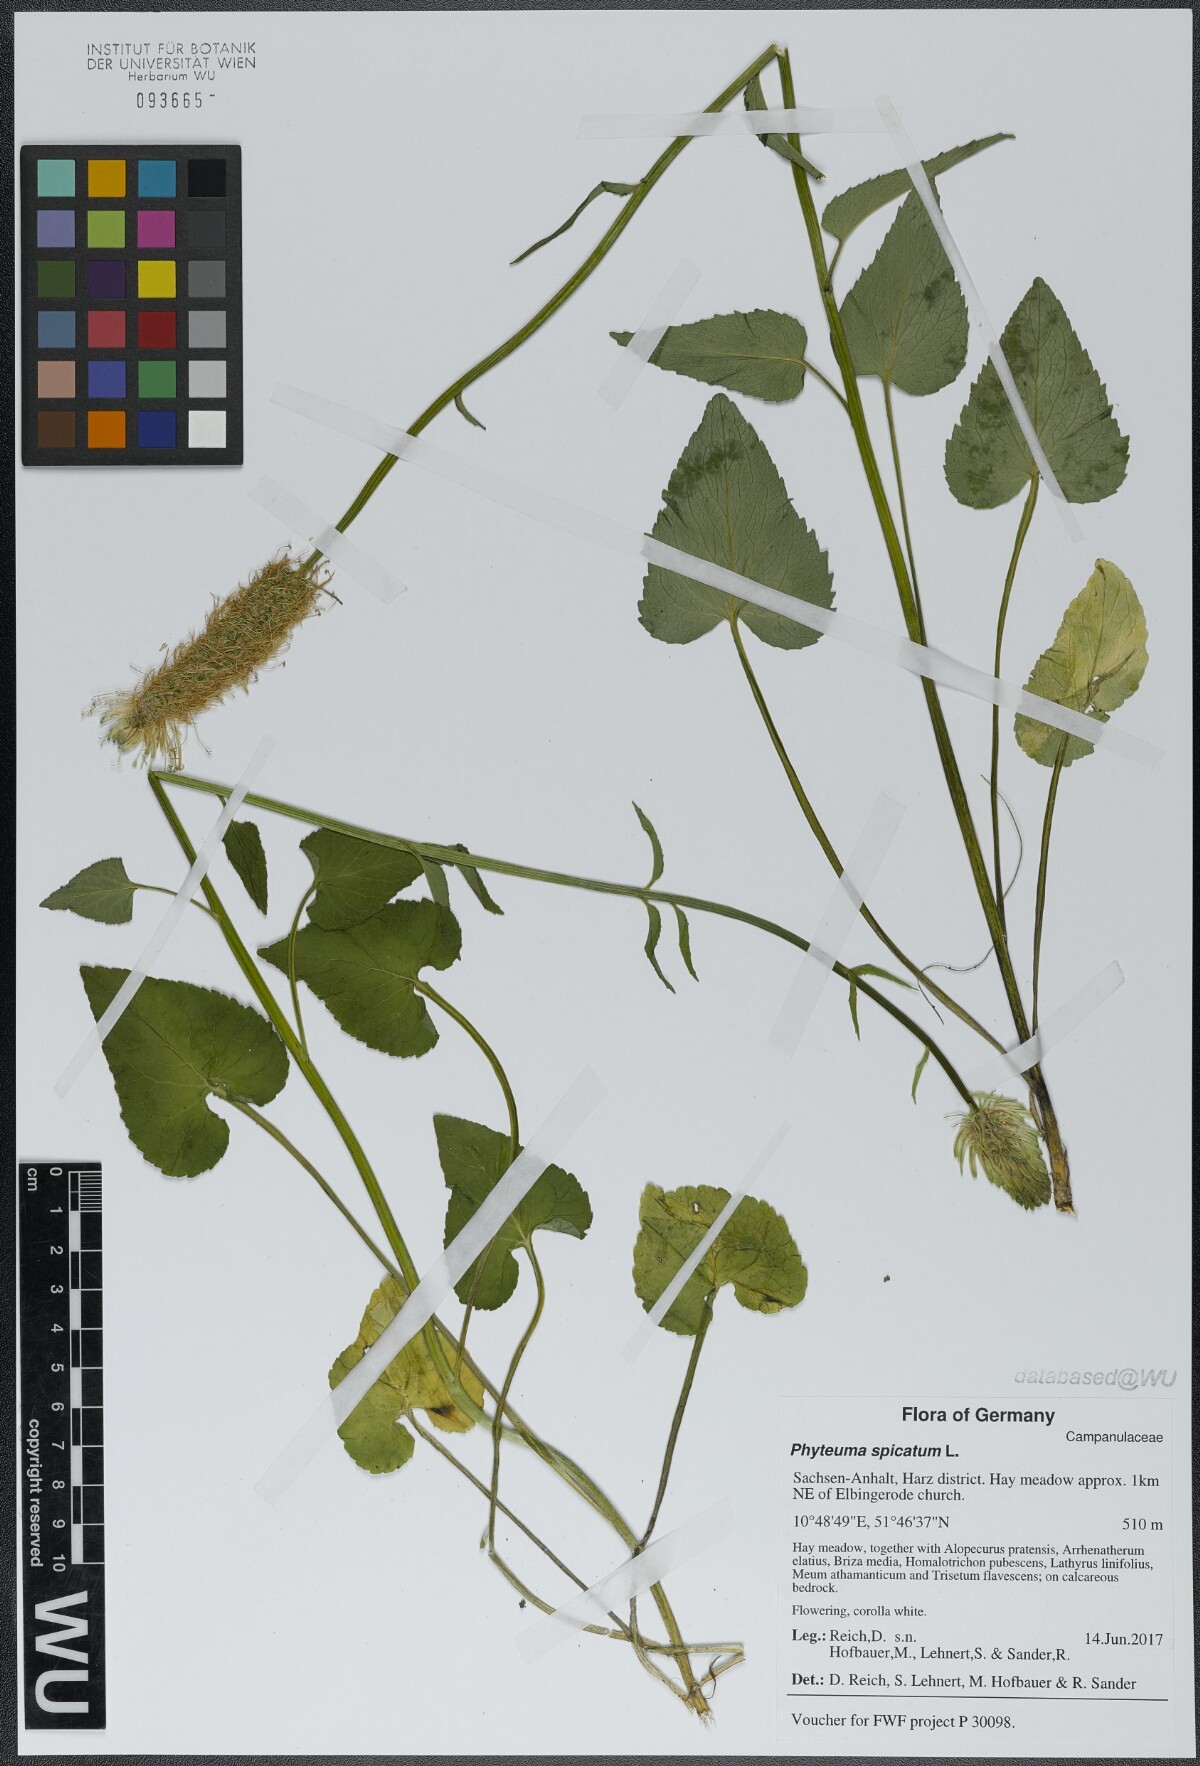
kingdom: Plantae
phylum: Tracheophyta
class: Magnoliopsida
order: Asterales
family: Campanulaceae
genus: Phyteuma
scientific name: Phyteuma spicatum
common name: Spiked rampion
